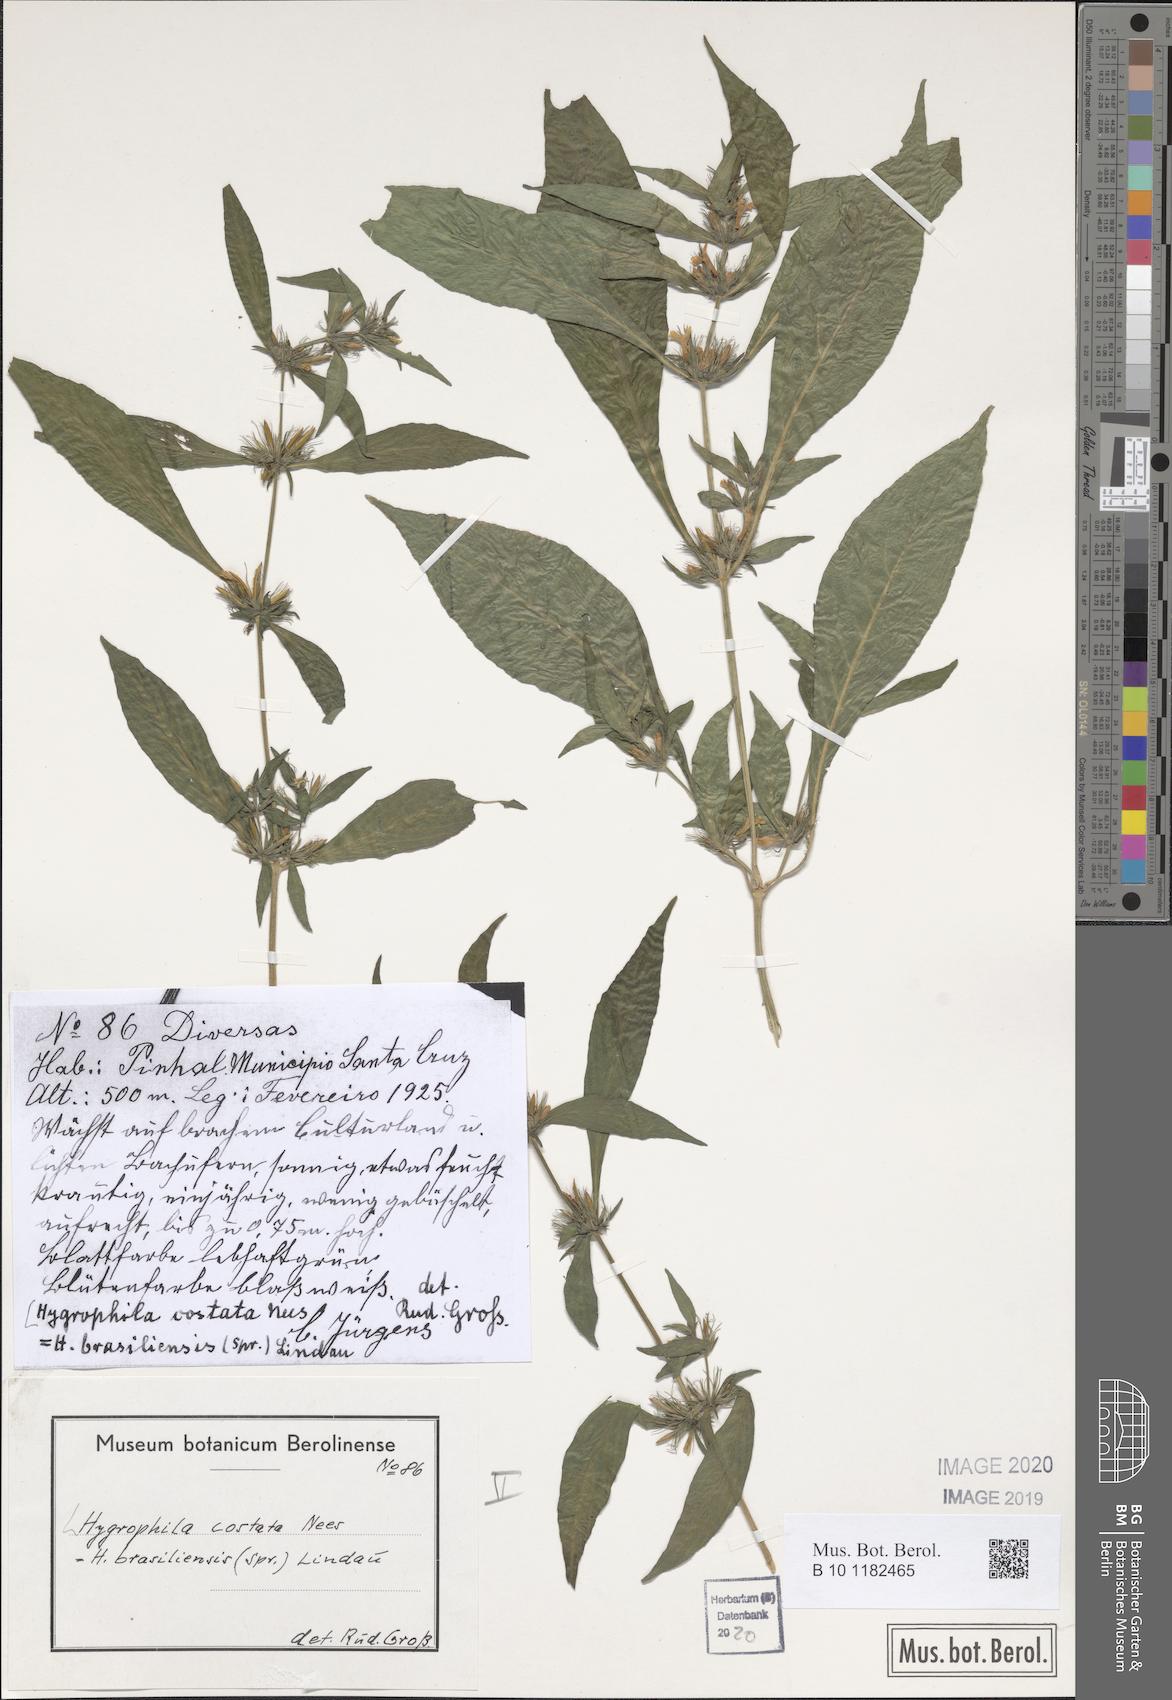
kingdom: Plantae
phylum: Tracheophyta
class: Magnoliopsida
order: Lamiales
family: Acanthaceae
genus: Hygrophila
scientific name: Hygrophila costata
